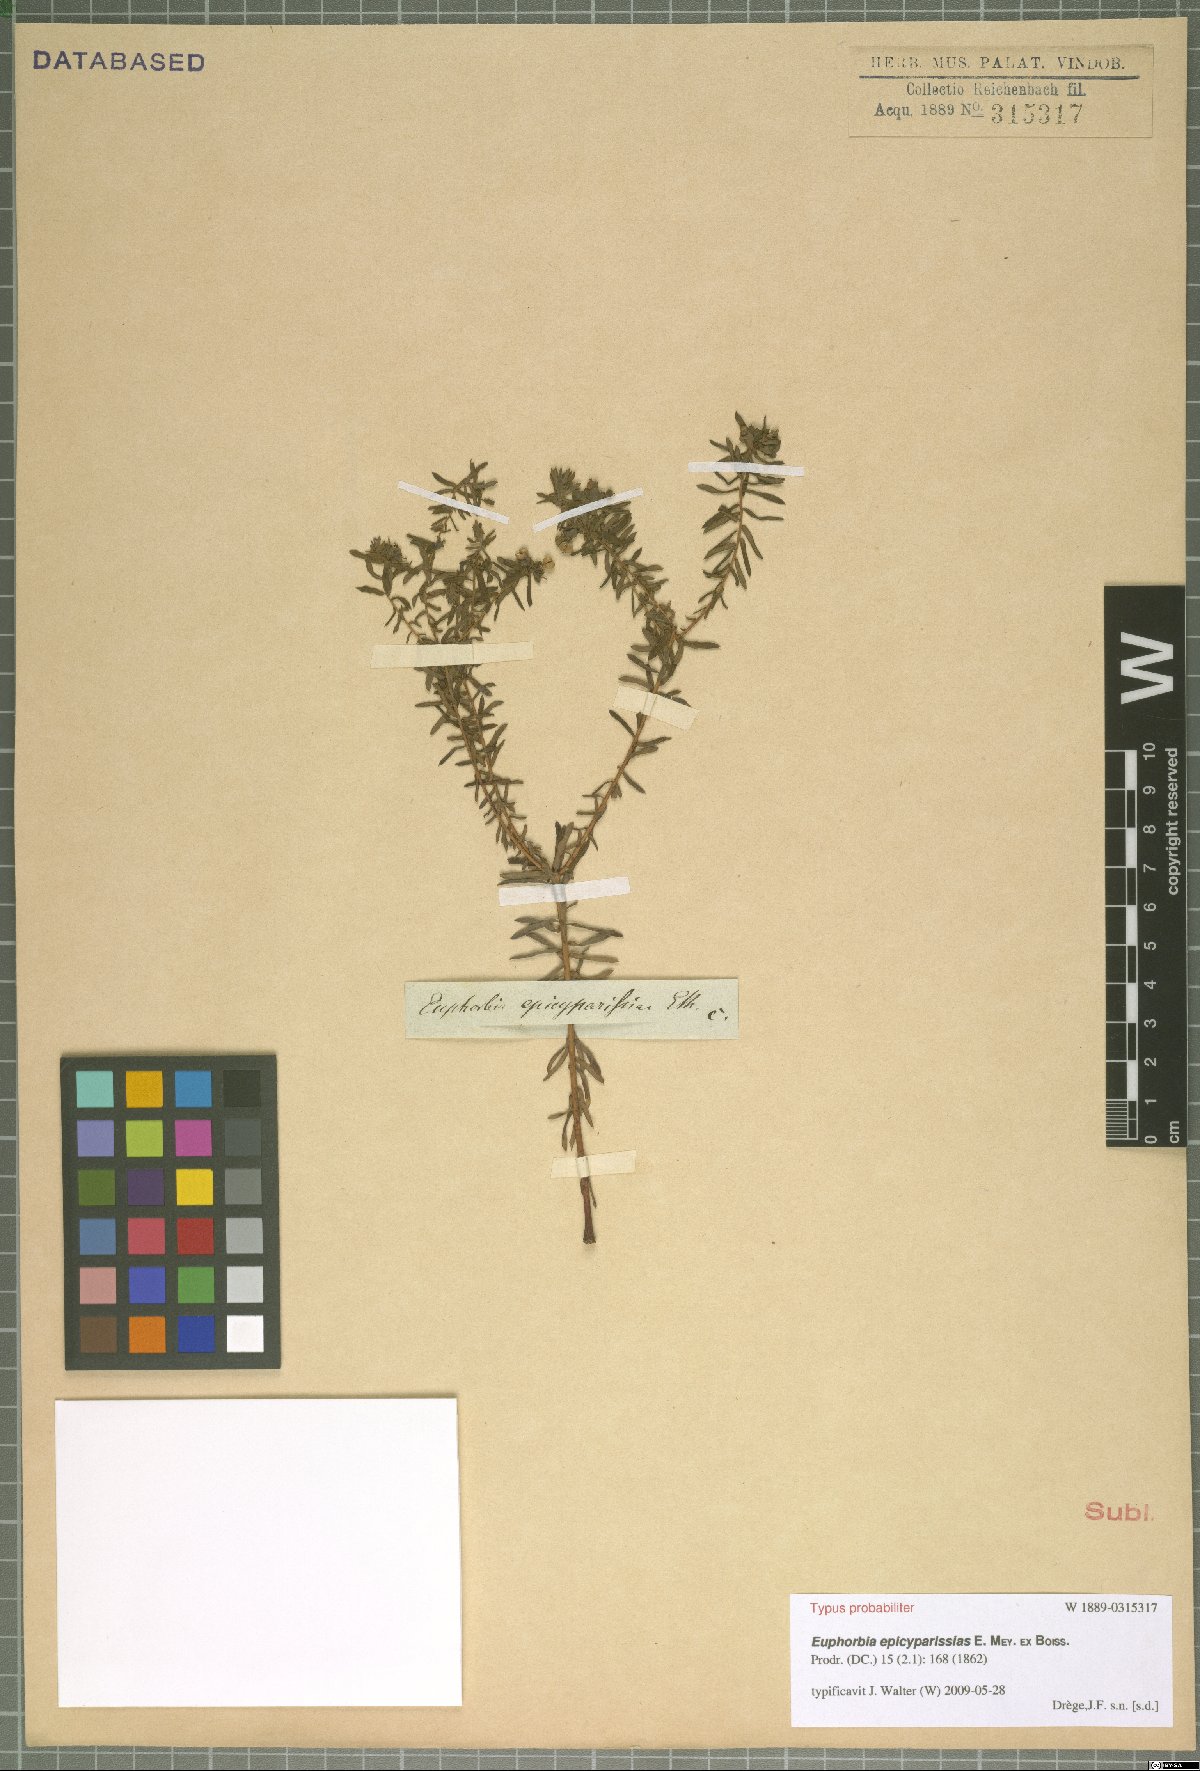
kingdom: Plantae
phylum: Tracheophyta
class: Magnoliopsida
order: Malpighiales
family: Euphorbiaceae
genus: Euphorbia
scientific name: Euphorbia natalensis
